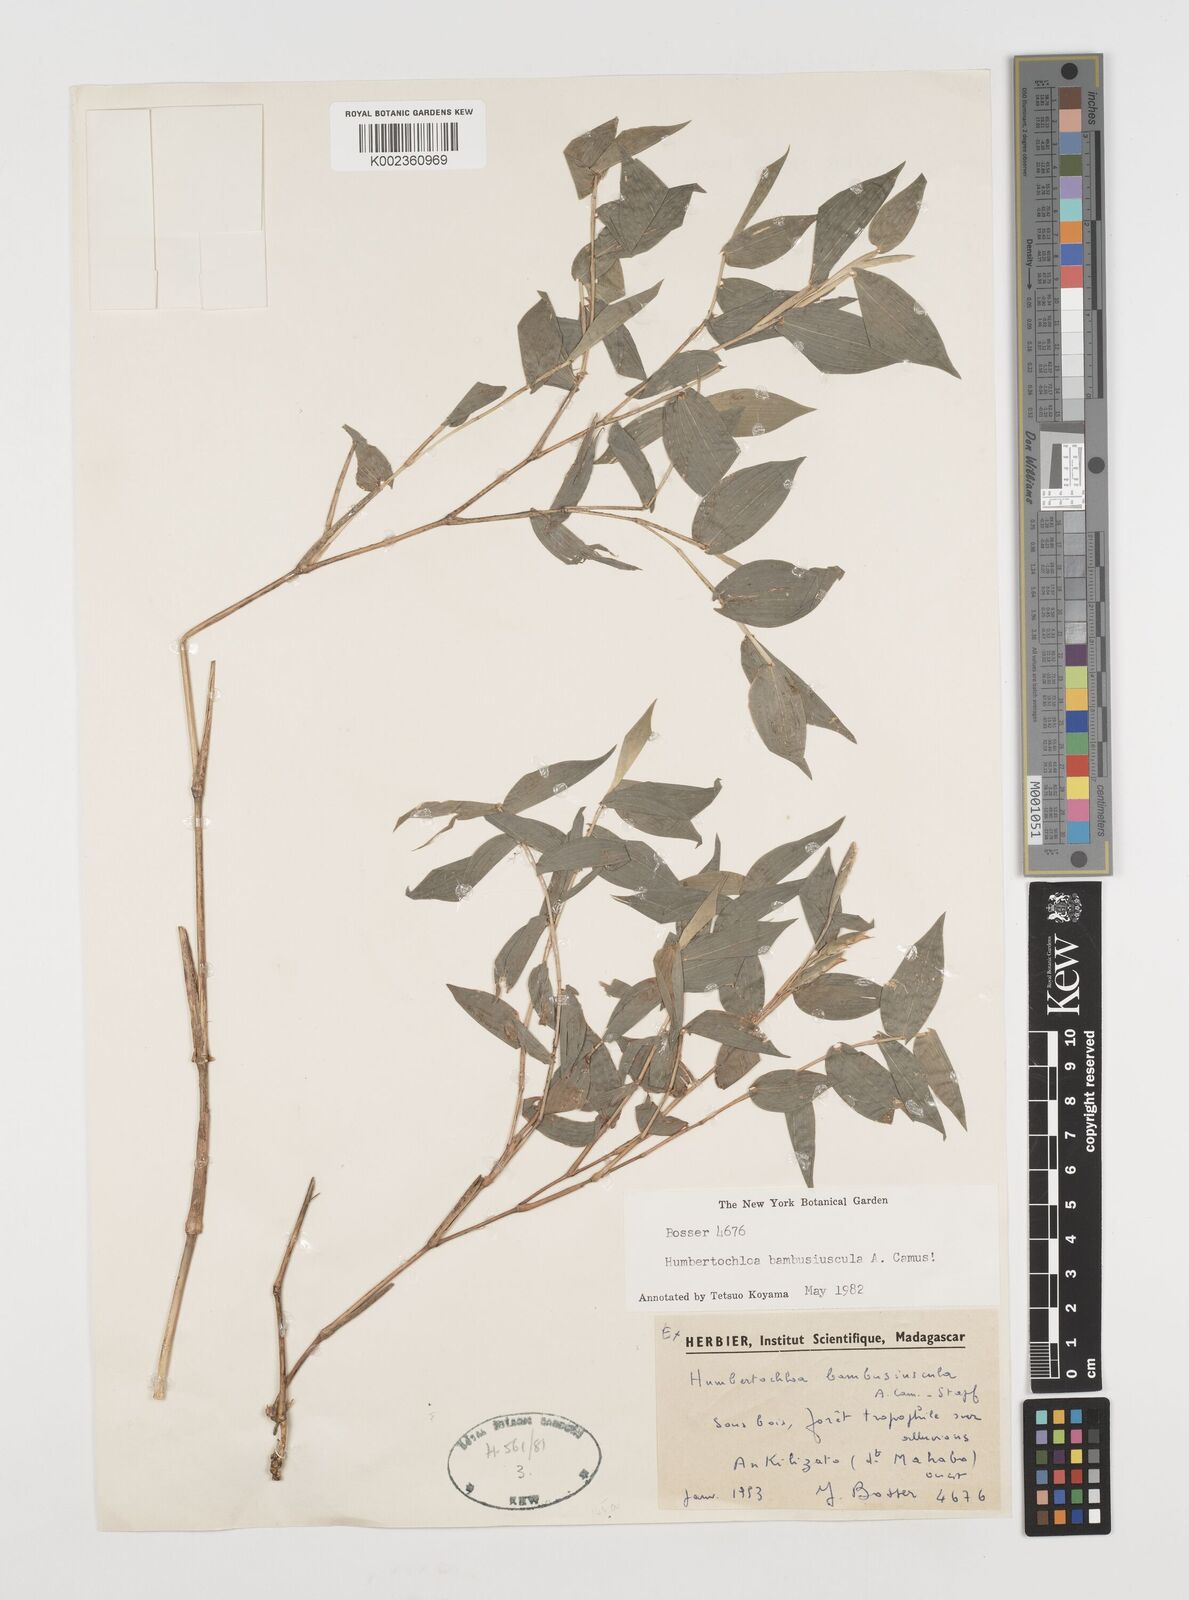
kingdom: Plantae
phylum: Tracheophyta
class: Liliopsida
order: Poales
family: Poaceae
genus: Humbertochloa
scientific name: Humbertochloa bambusiuscula
